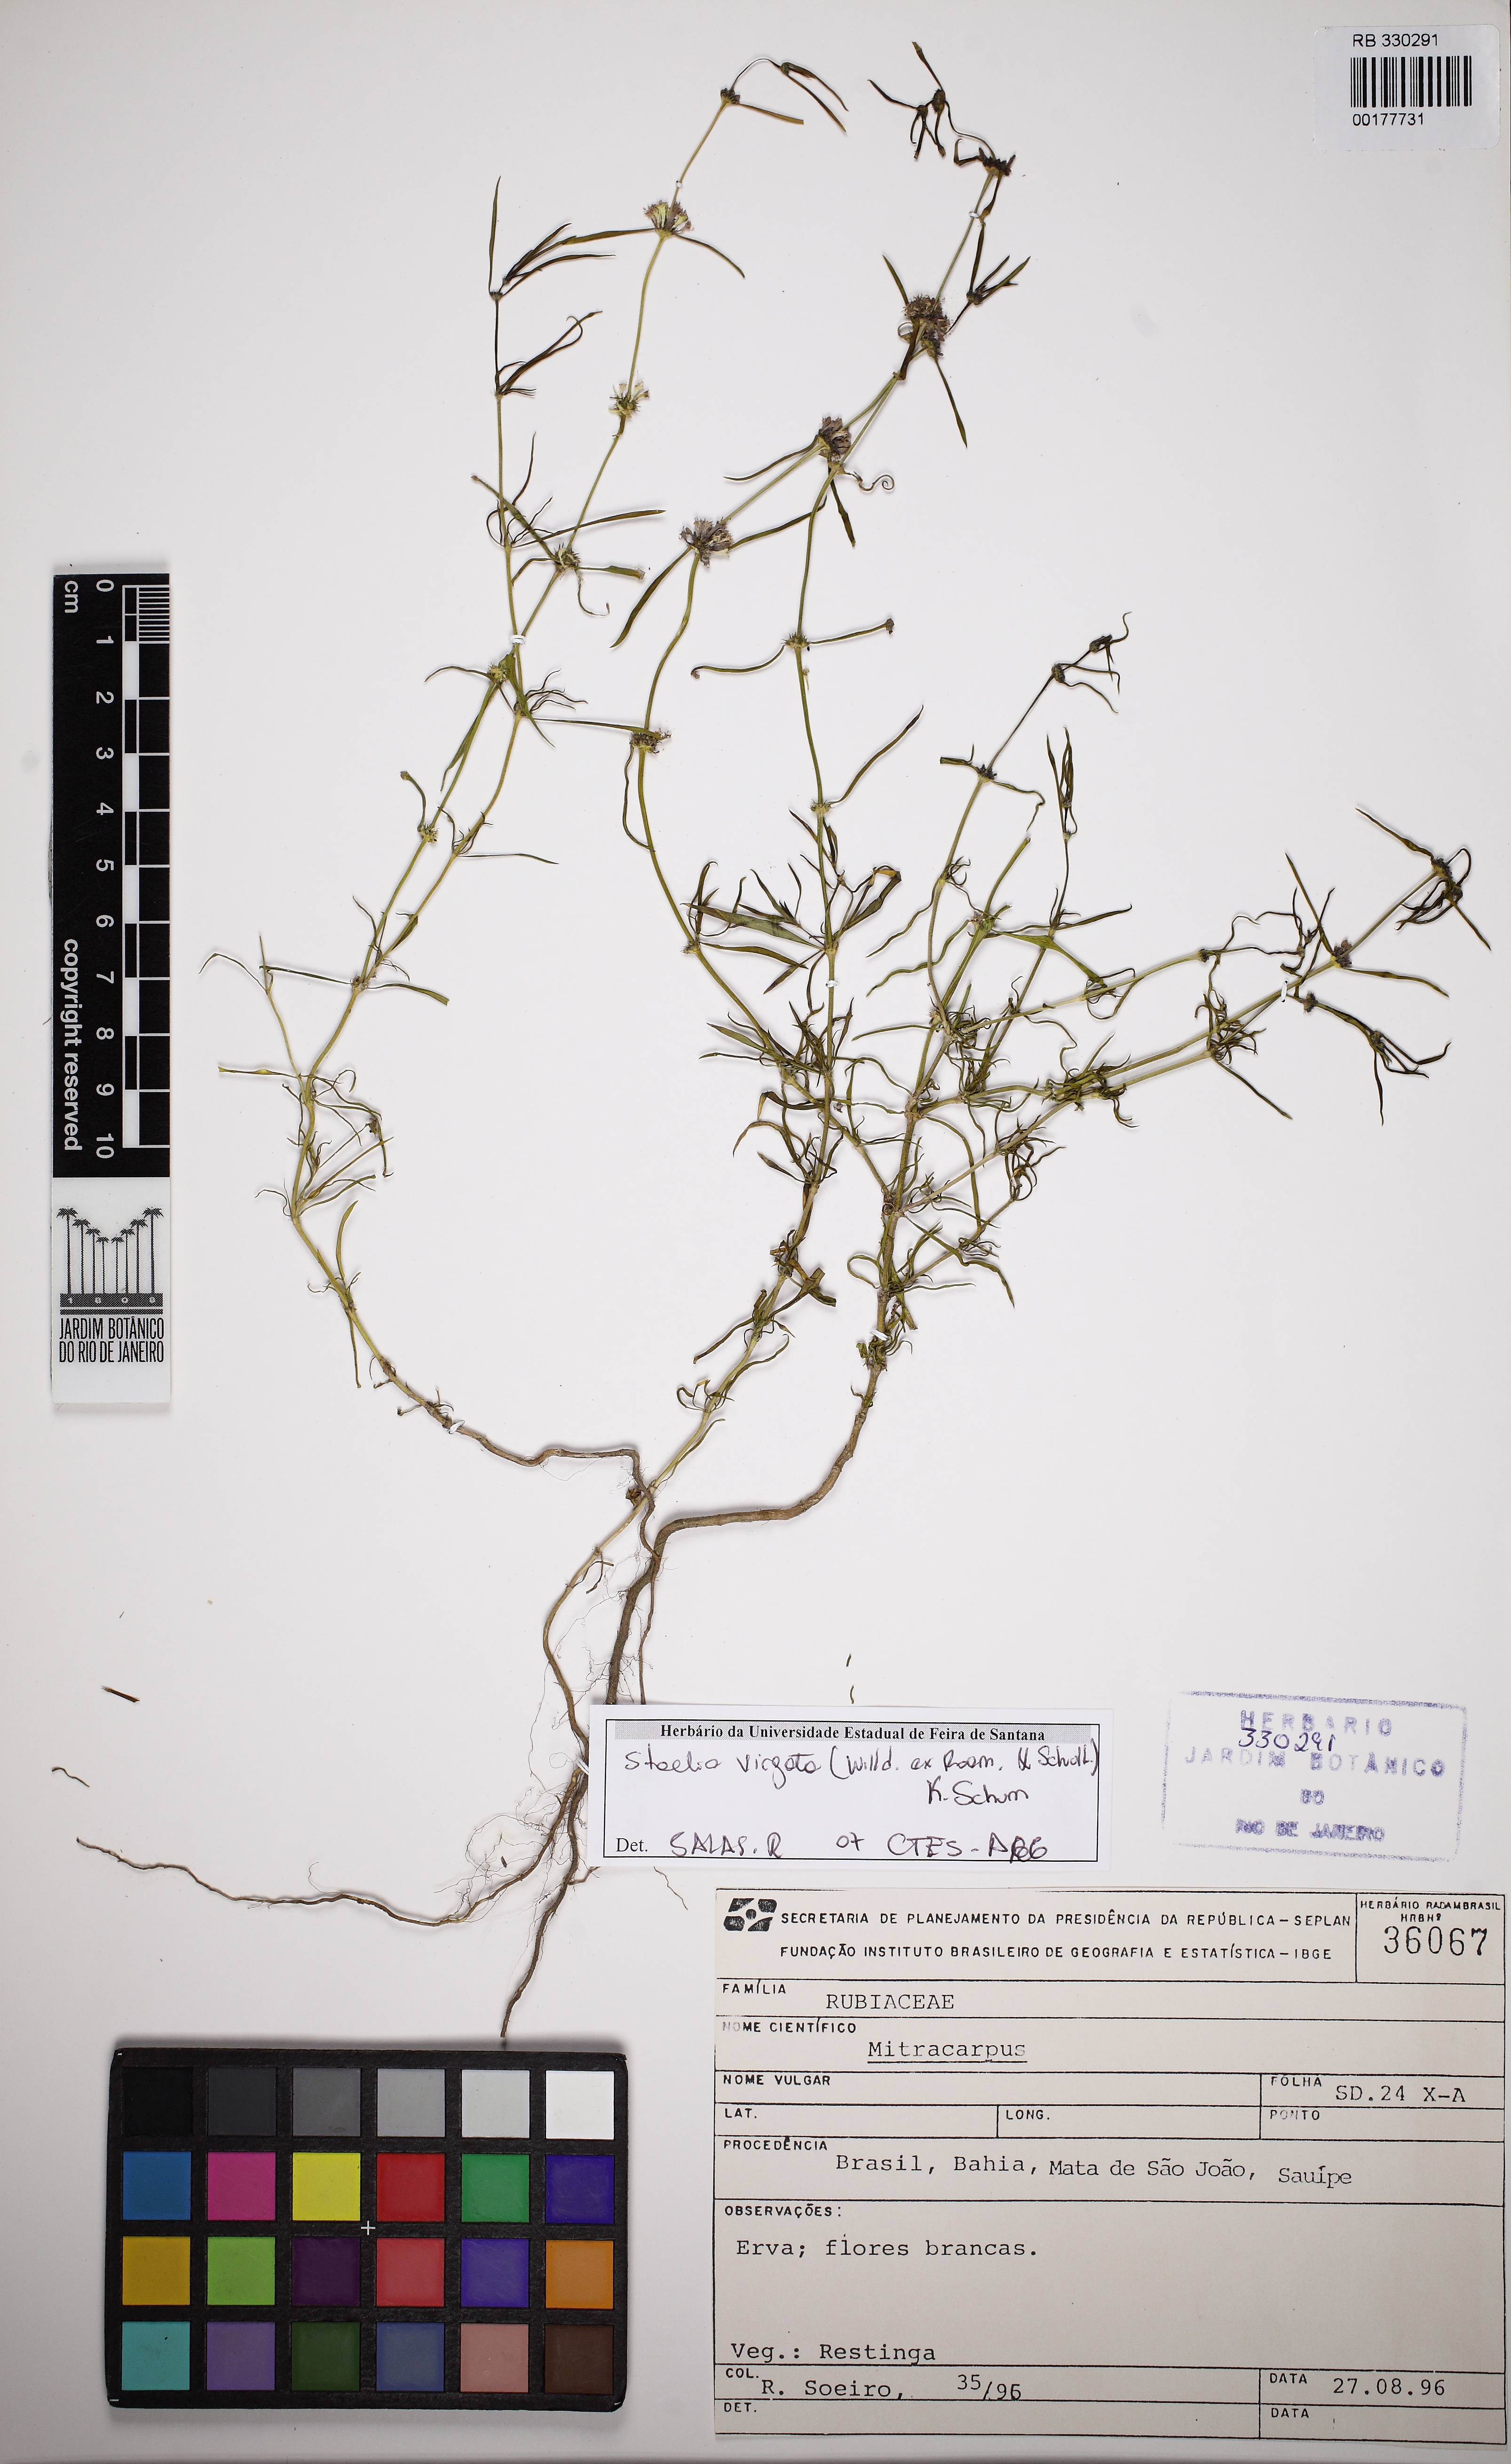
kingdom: Plantae
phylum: Tracheophyta
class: Magnoliopsida
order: Gentianales
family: Rubiaceae
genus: Staelia
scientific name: Staelia virgata
